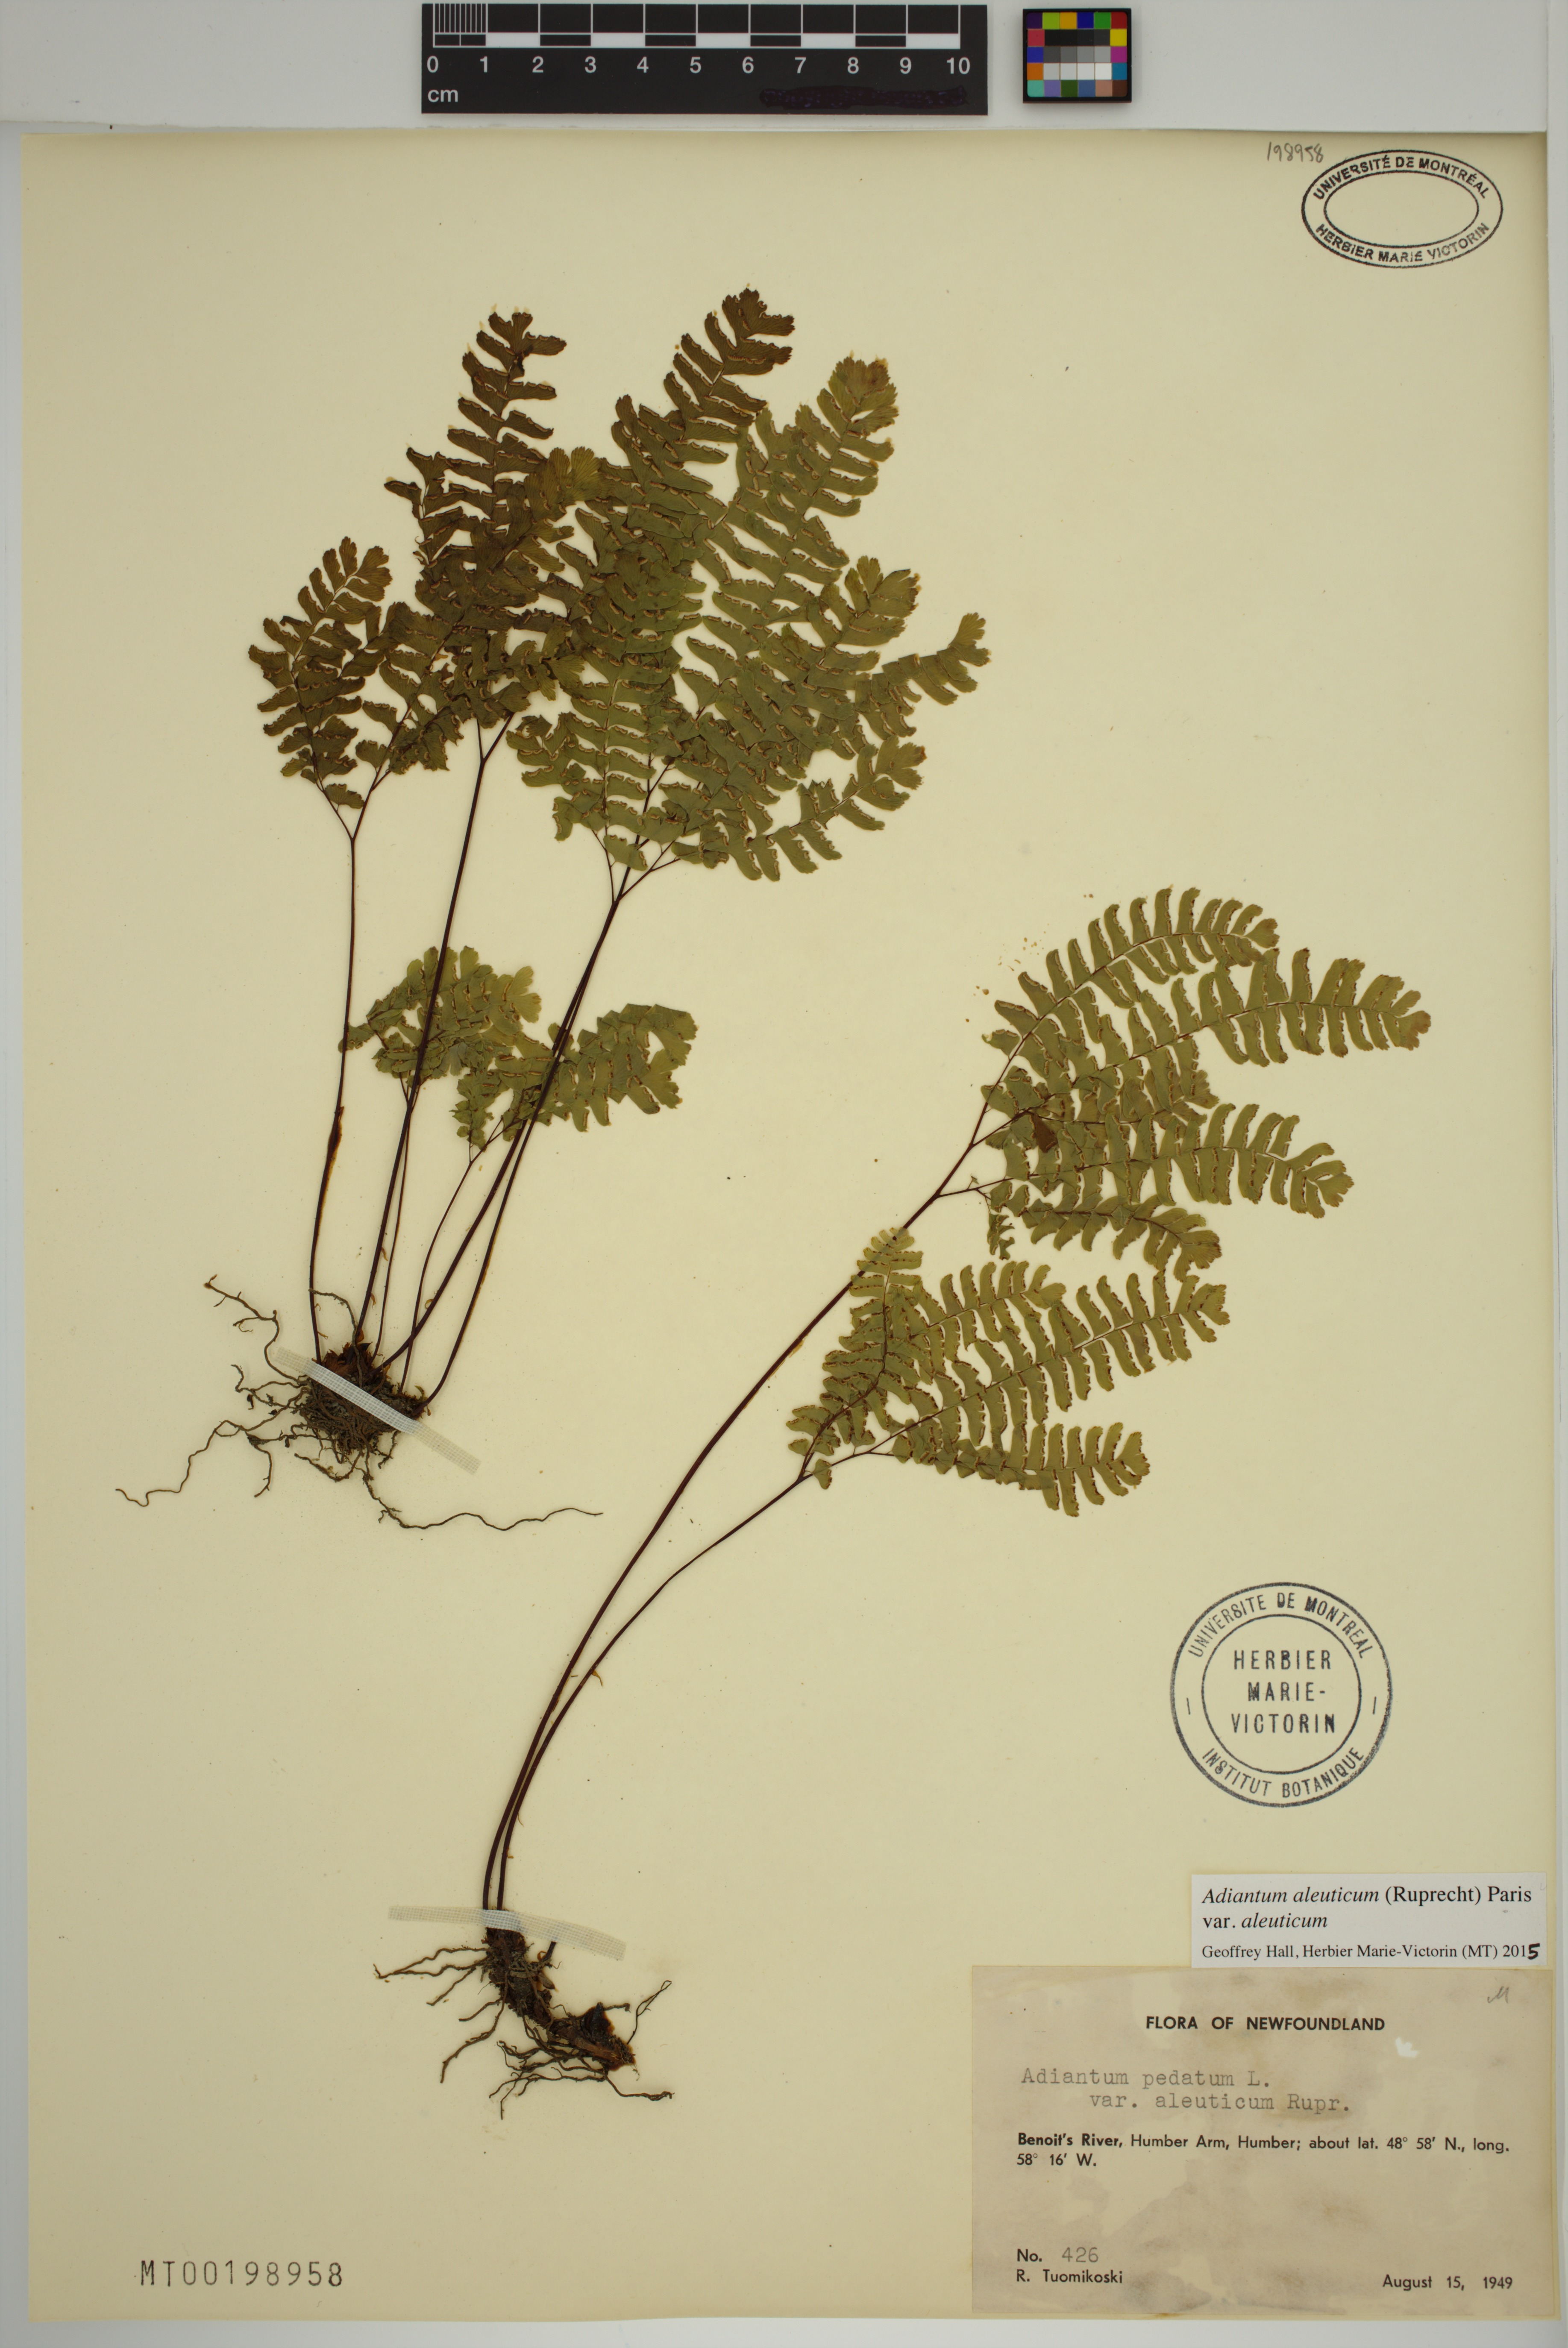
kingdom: Plantae
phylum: Tracheophyta
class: Polypodiopsida
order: Polypodiales
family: Pteridaceae
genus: Adiantum
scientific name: Adiantum aleuticum
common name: Aleutian maidenhair fern
